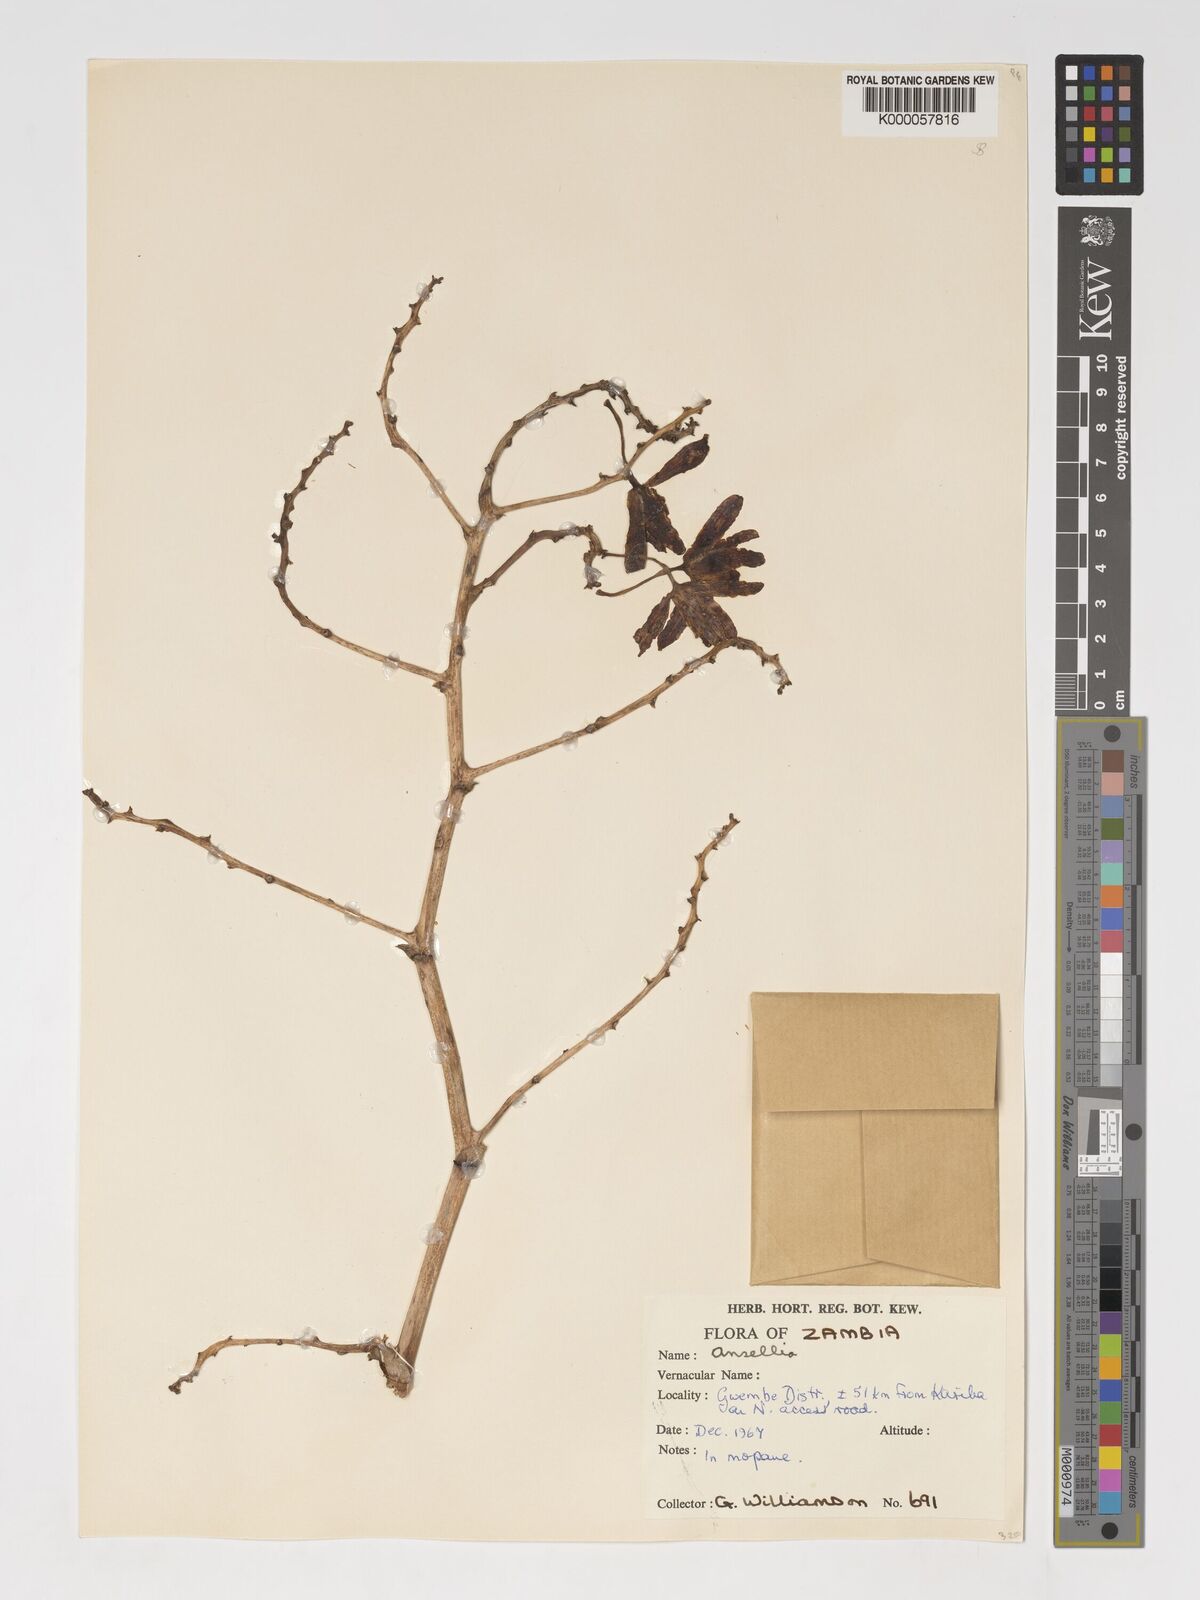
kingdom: Plantae
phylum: Tracheophyta
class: Liliopsida
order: Asparagales
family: Orchidaceae
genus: Ansellia
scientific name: Ansellia africana
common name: African ansellia
